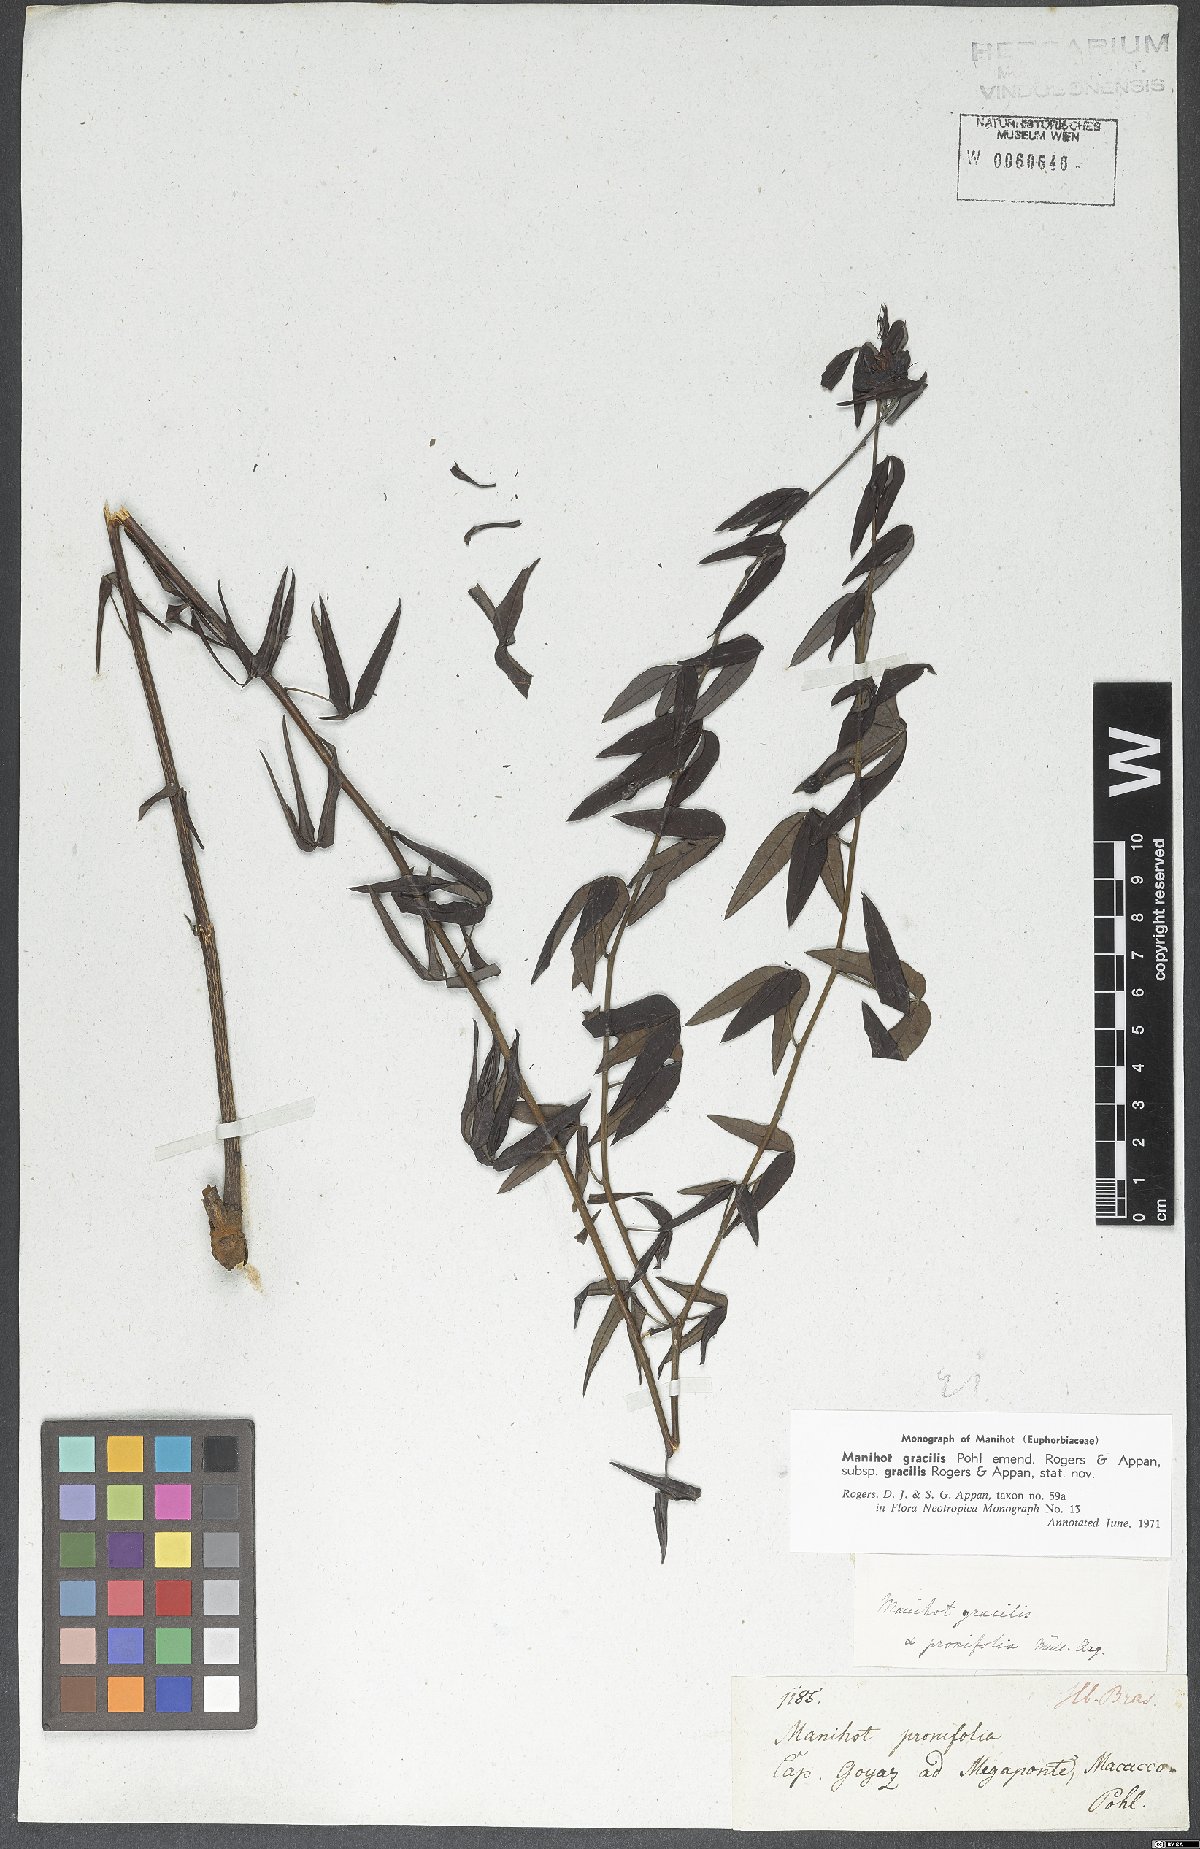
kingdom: Plantae
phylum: Tracheophyta
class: Magnoliopsida
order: Malpighiales
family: Euphorbiaceae
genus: Manihot
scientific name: Manihot gracilis
